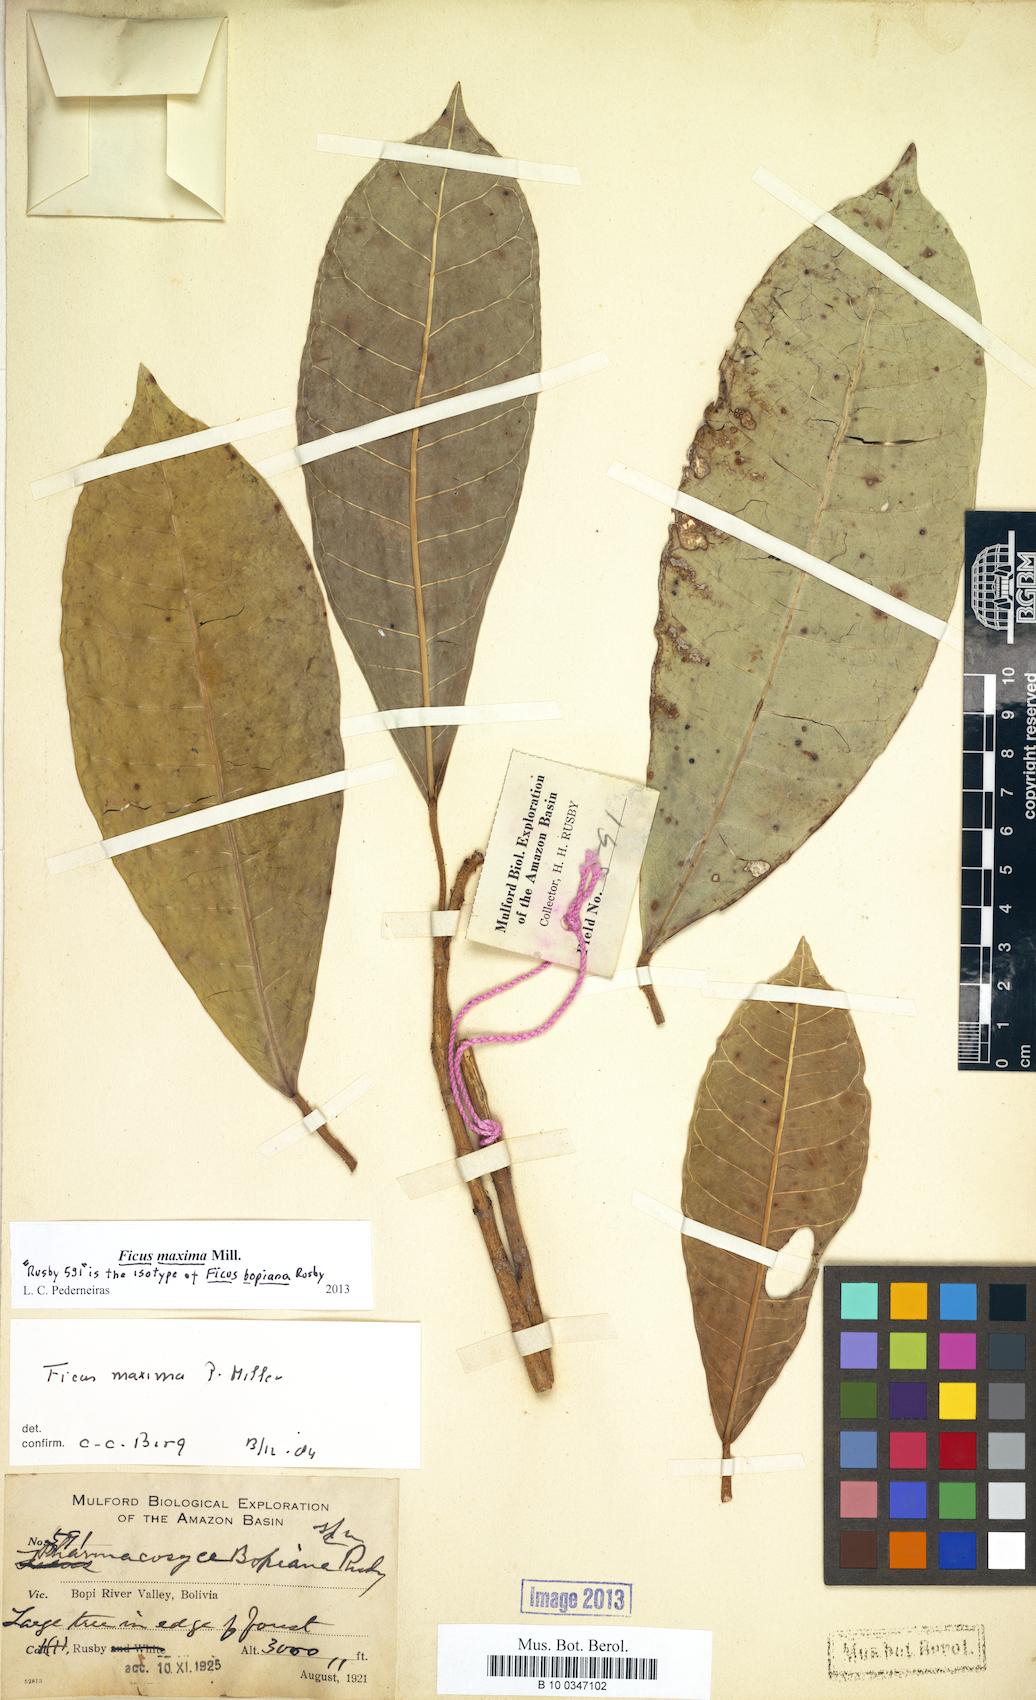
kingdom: Plantae
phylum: Tracheophyta
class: Magnoliopsida
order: Rosales
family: Moraceae
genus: Ficus
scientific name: Ficus maxima
